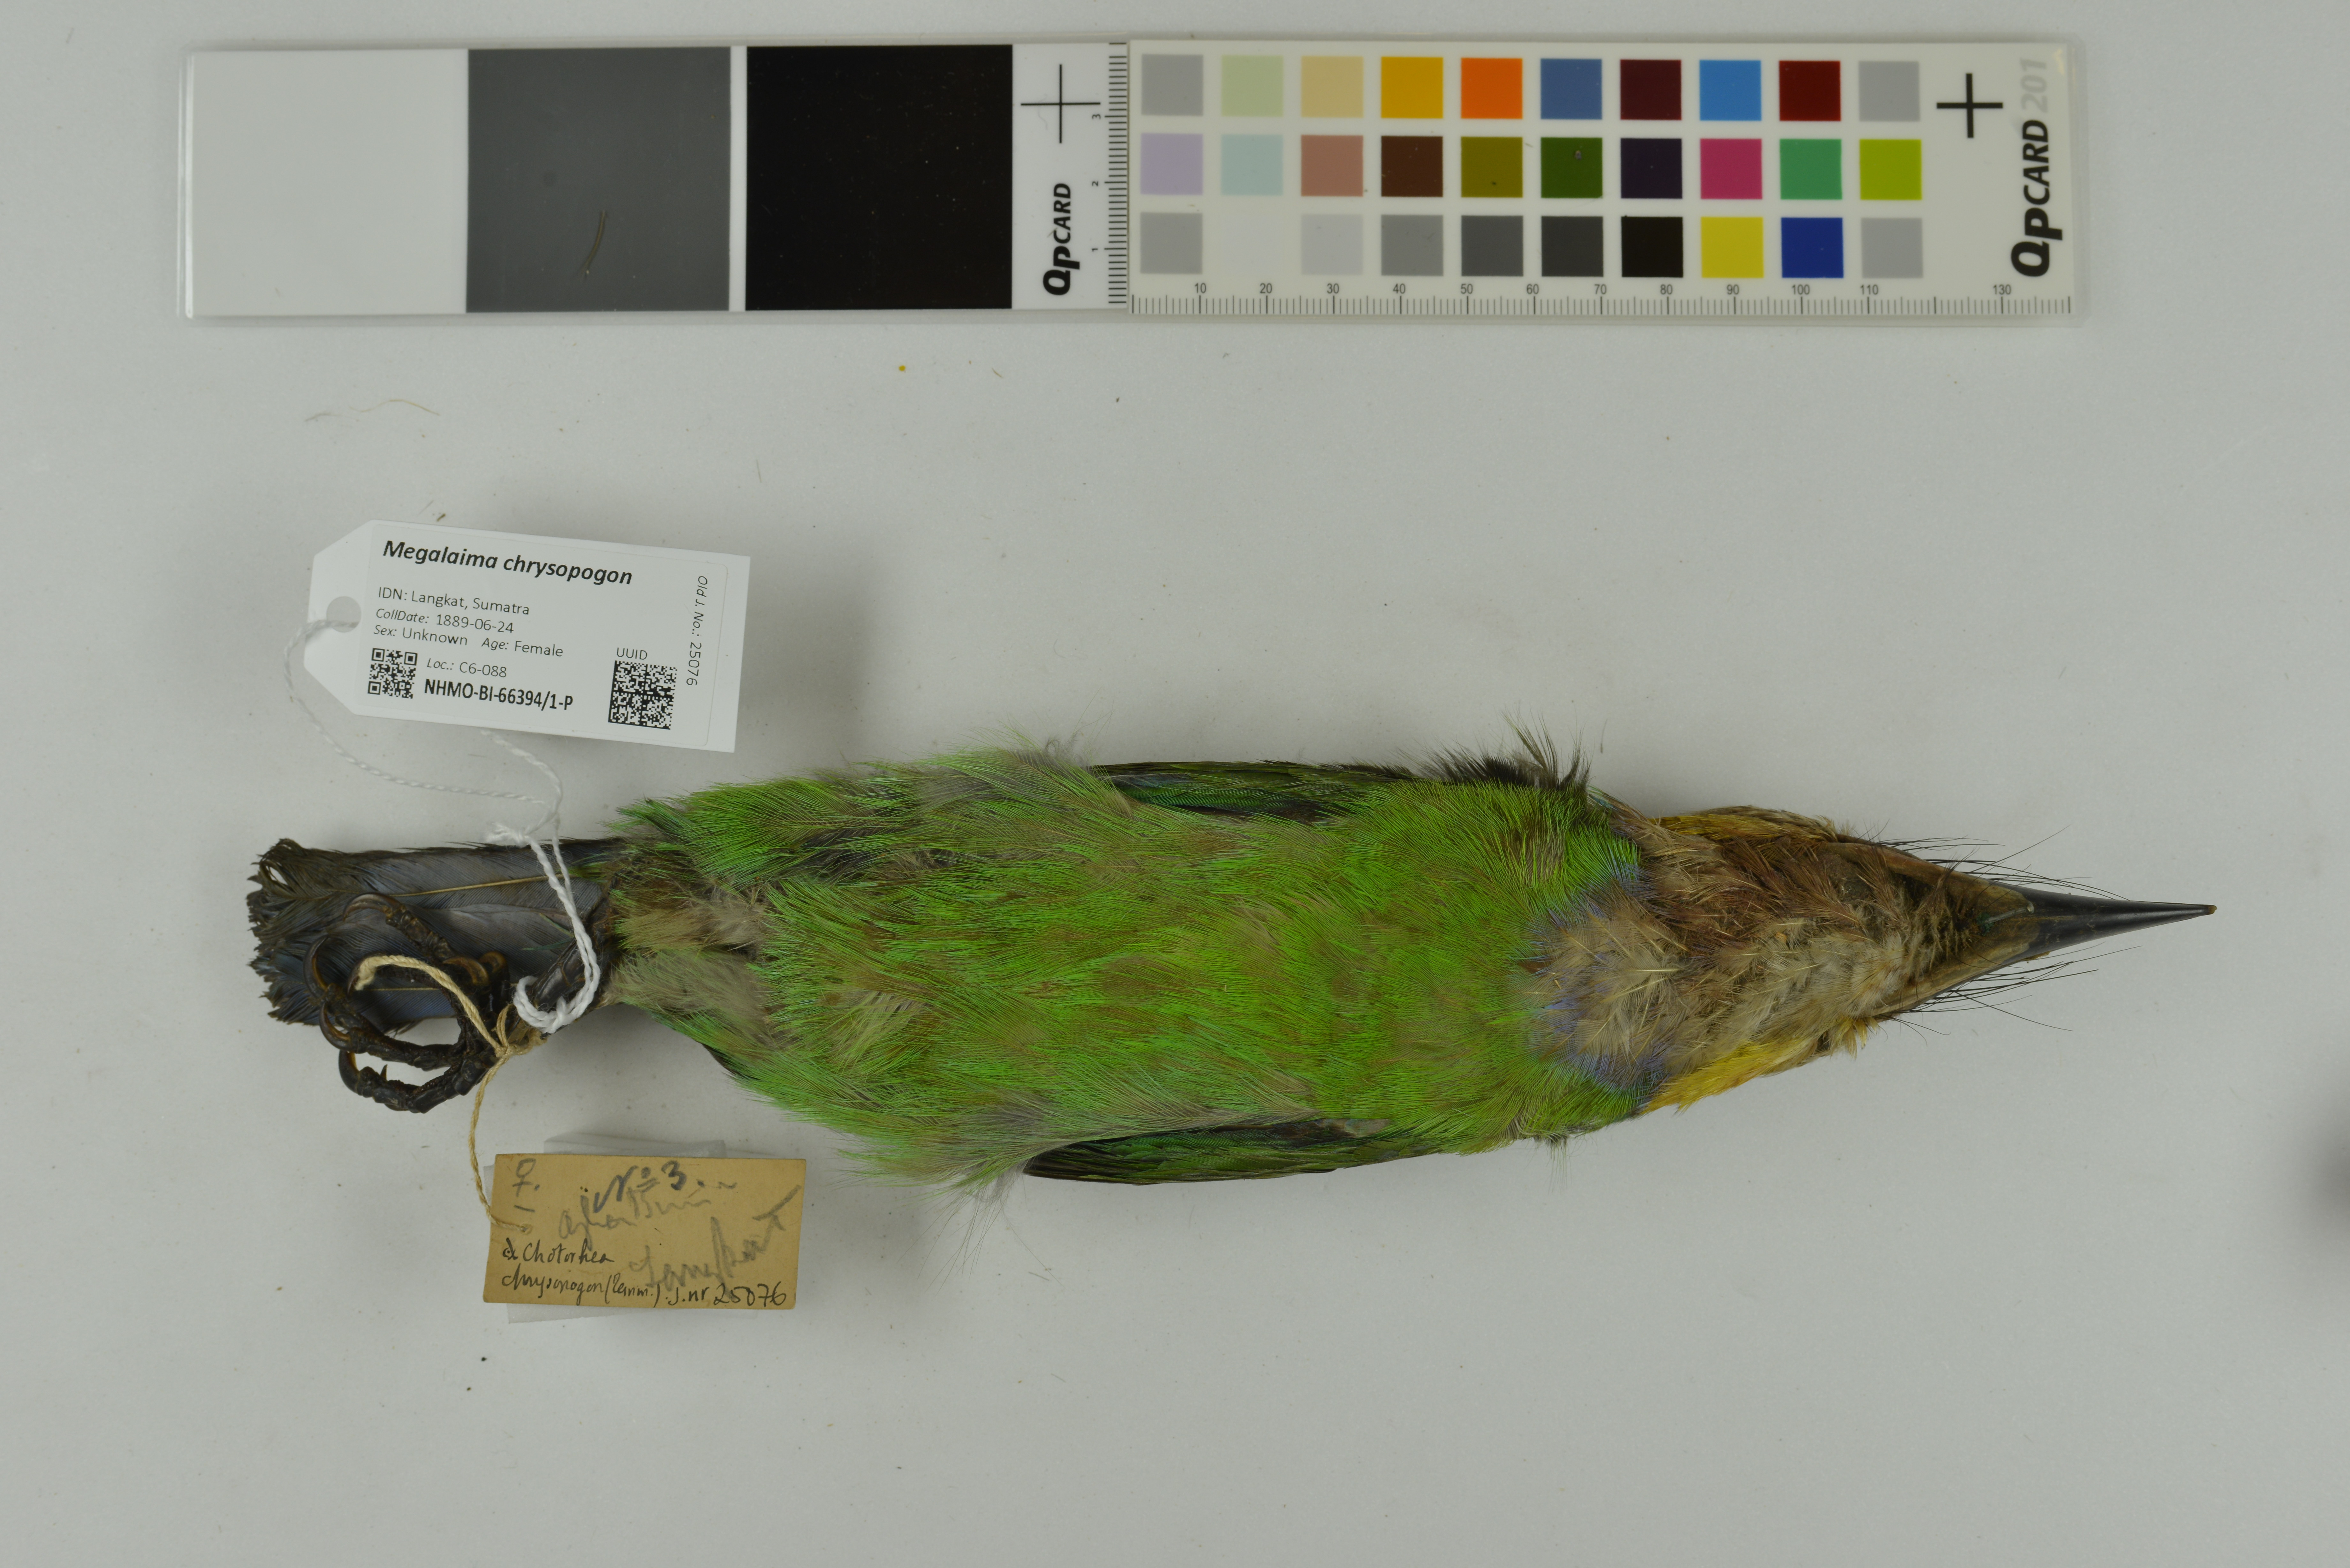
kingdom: Animalia
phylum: Chordata
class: Aves
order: Piciformes
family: Megalaimidae
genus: Psilopogon
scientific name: Psilopogon chrysopogon
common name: Golden-whiskered barbet
